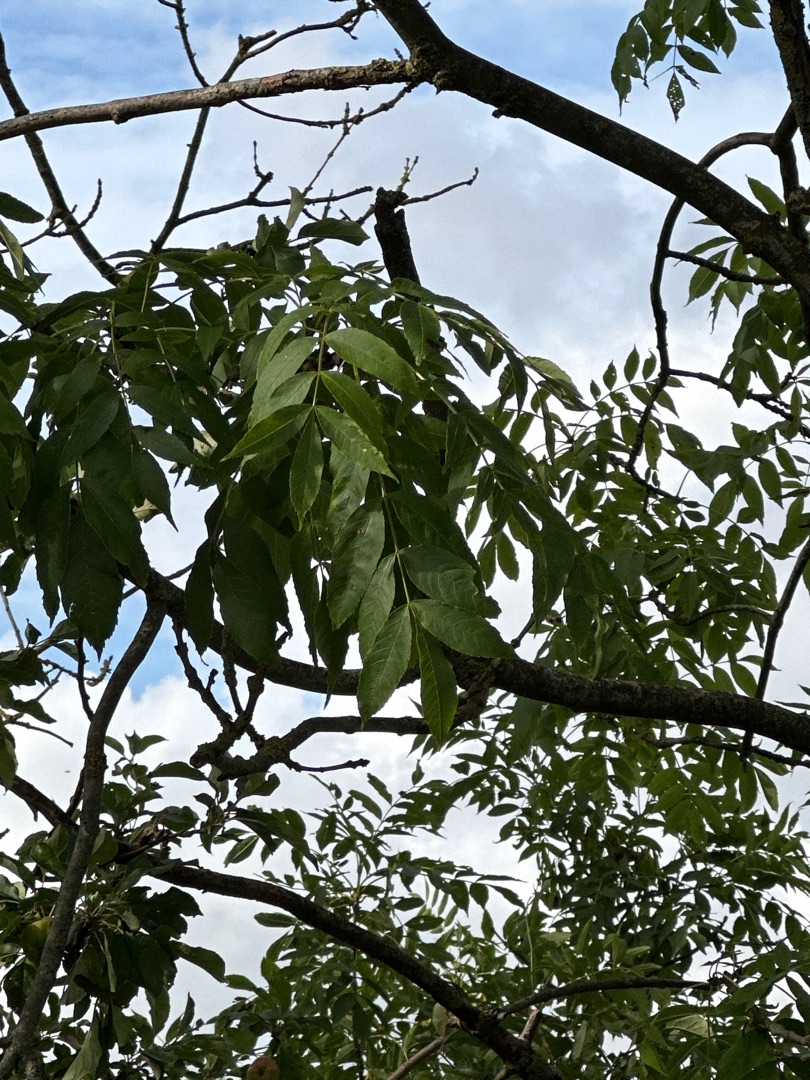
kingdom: Plantae
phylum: Tracheophyta
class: Magnoliopsida
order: Lamiales
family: Oleaceae
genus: Fraxinus
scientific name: Fraxinus excelsior
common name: Ask
